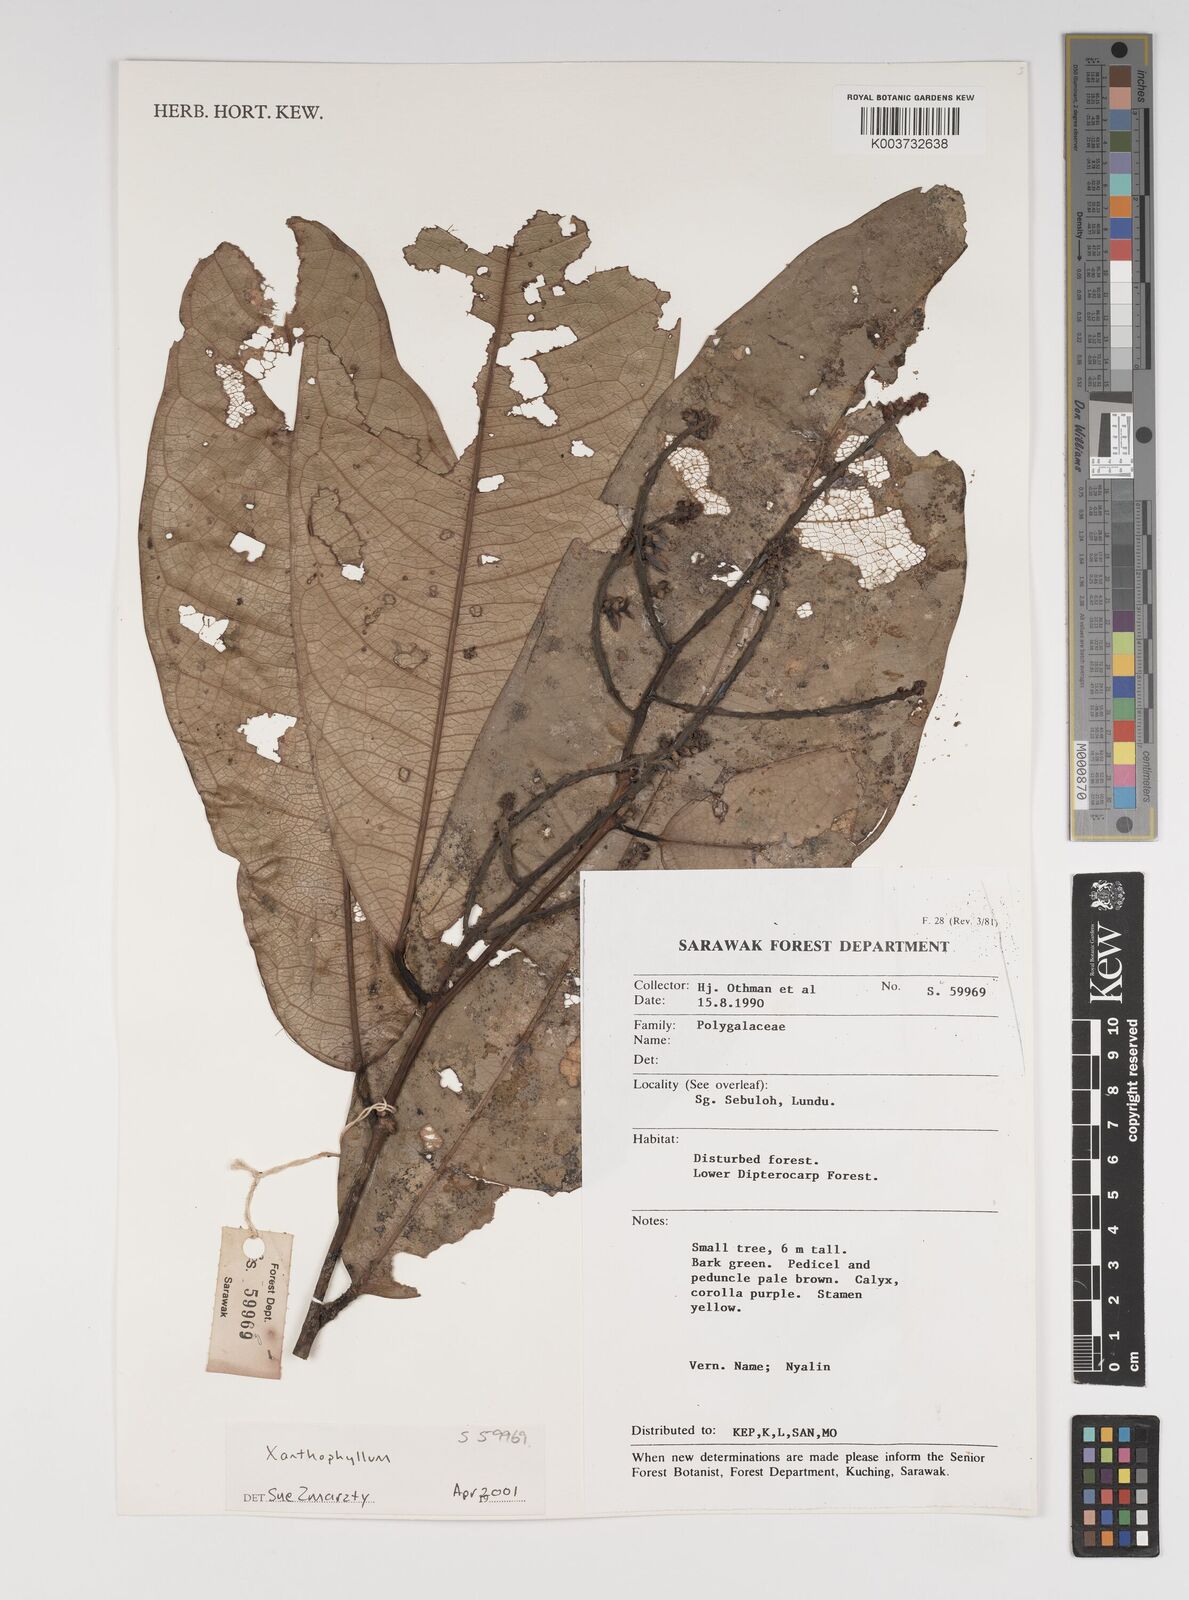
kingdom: Plantae
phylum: Tracheophyta
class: Magnoliopsida
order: Fabales
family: Polygalaceae
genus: Xanthophyllum
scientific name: Xanthophyllum
